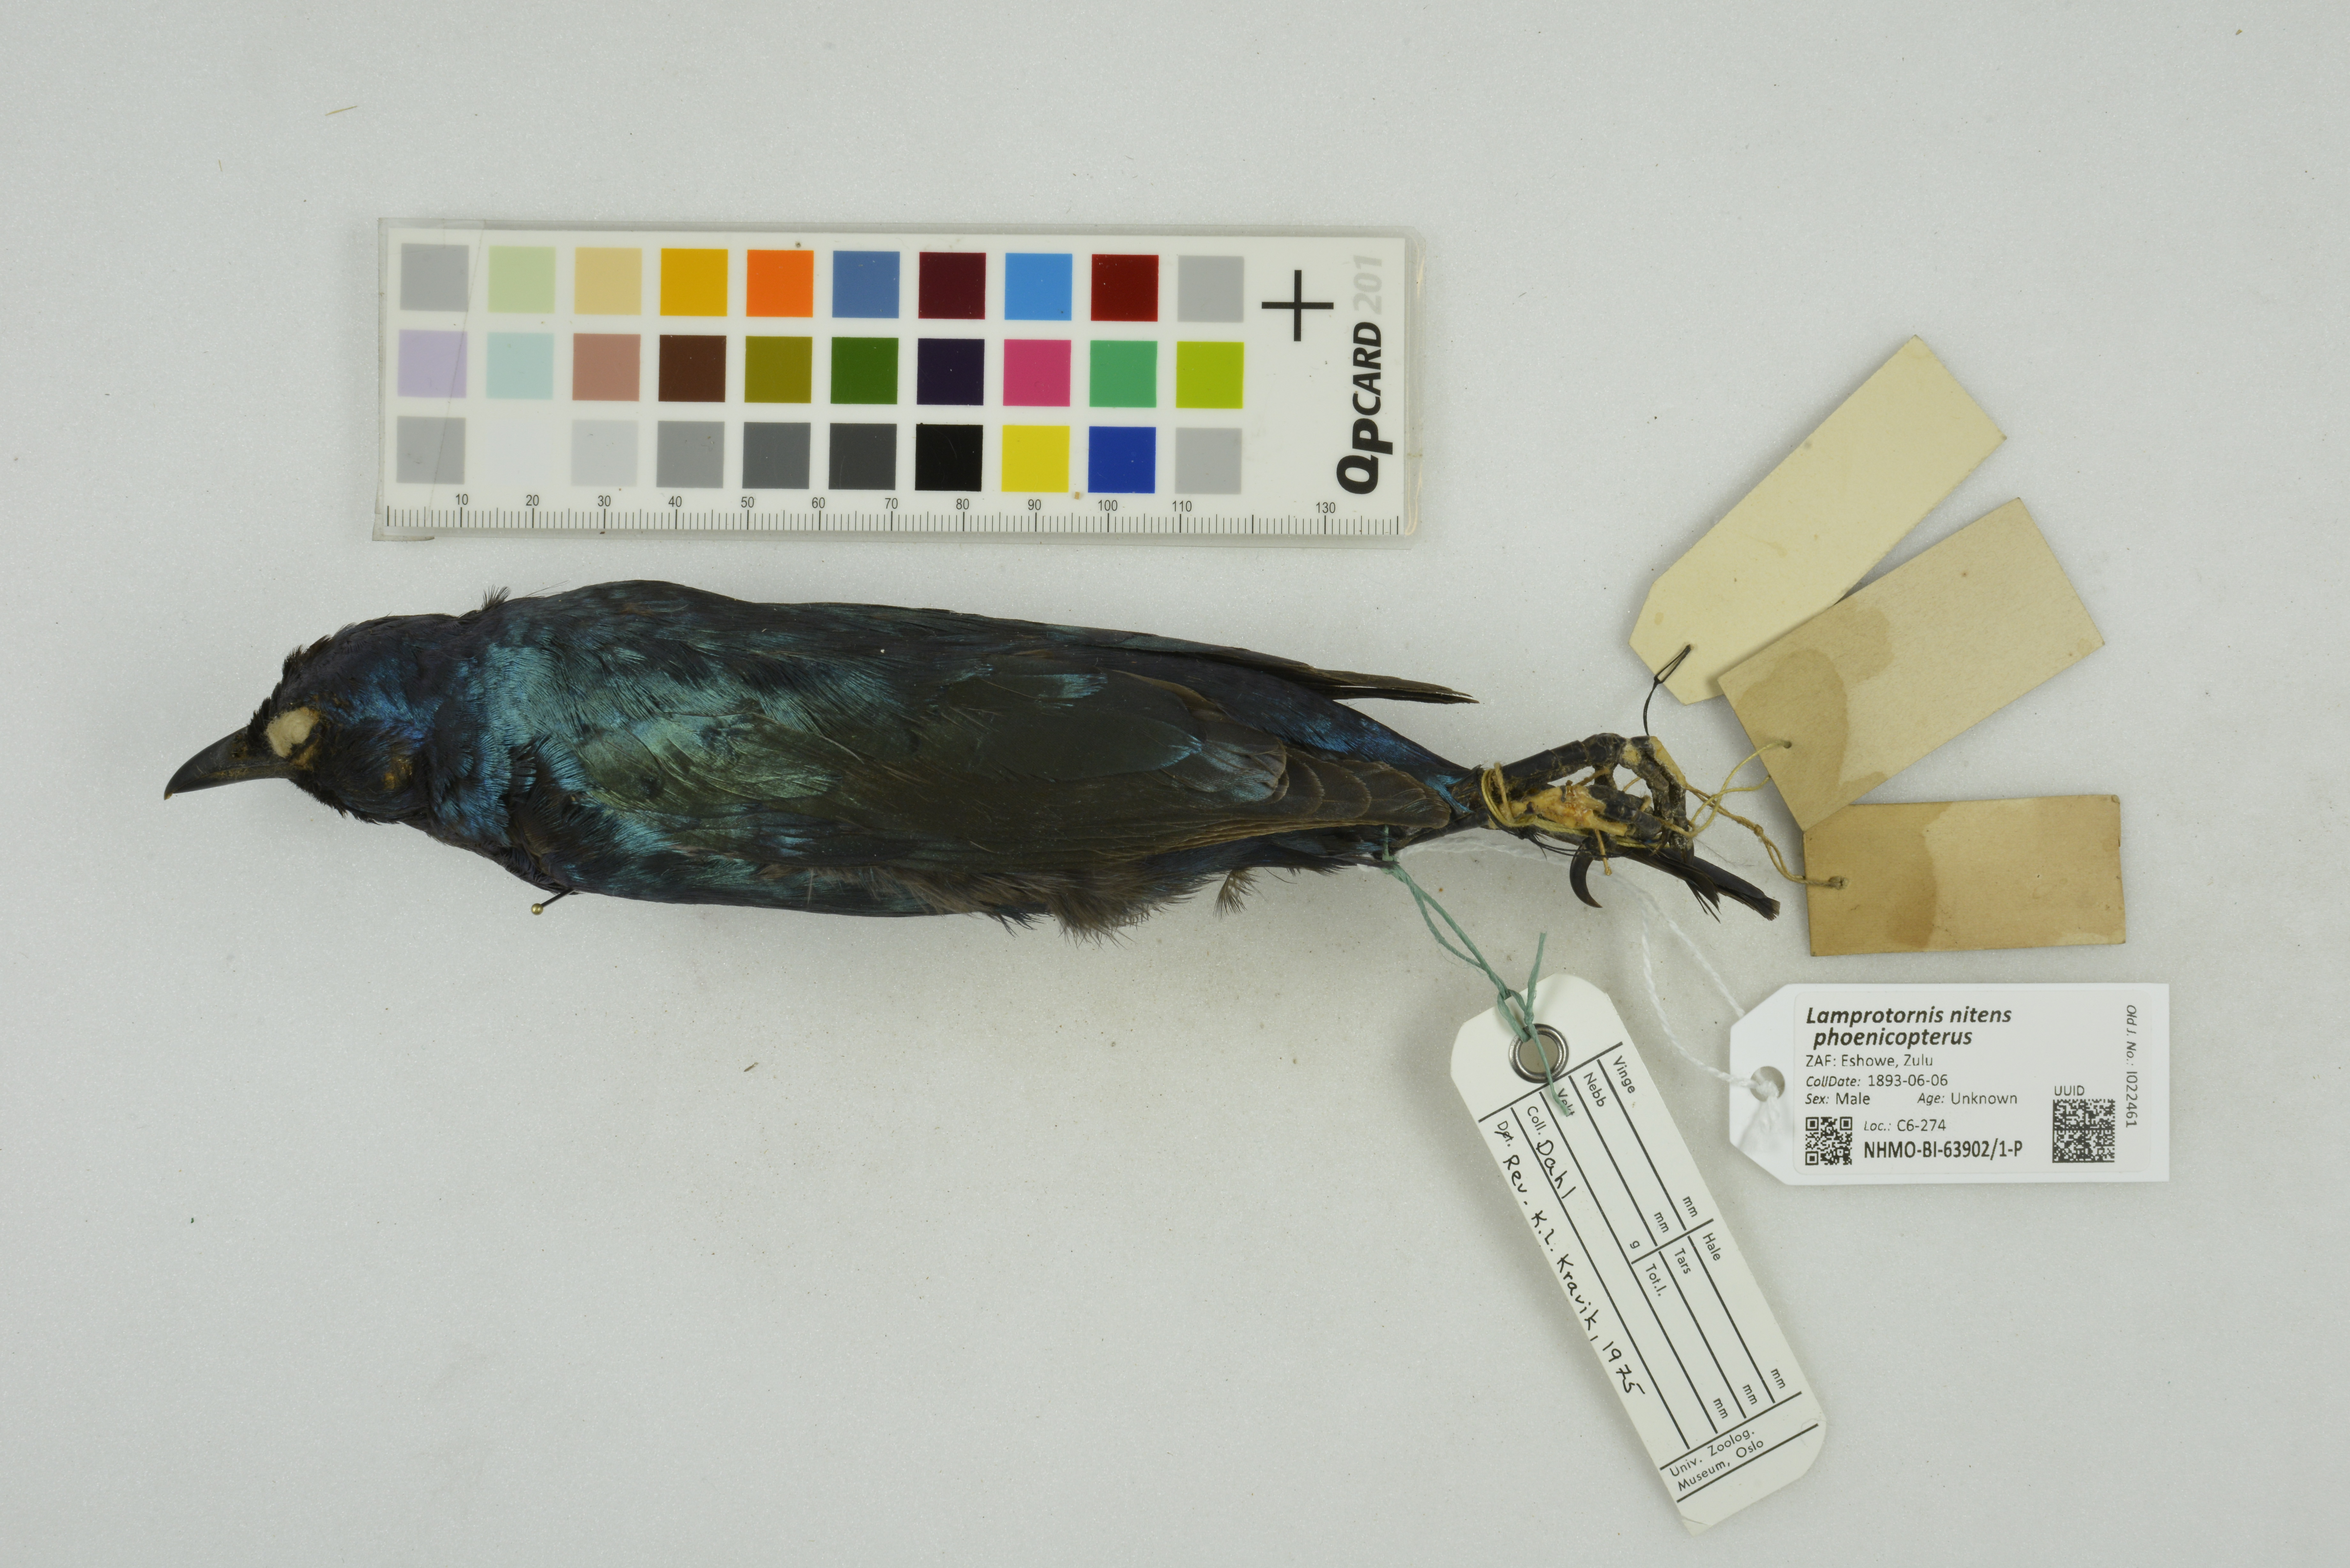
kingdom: Animalia
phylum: Chordata
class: Aves
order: Passeriformes
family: Sturnidae
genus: Lamprotornis
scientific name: Lamprotornis nitens
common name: Cape starling
